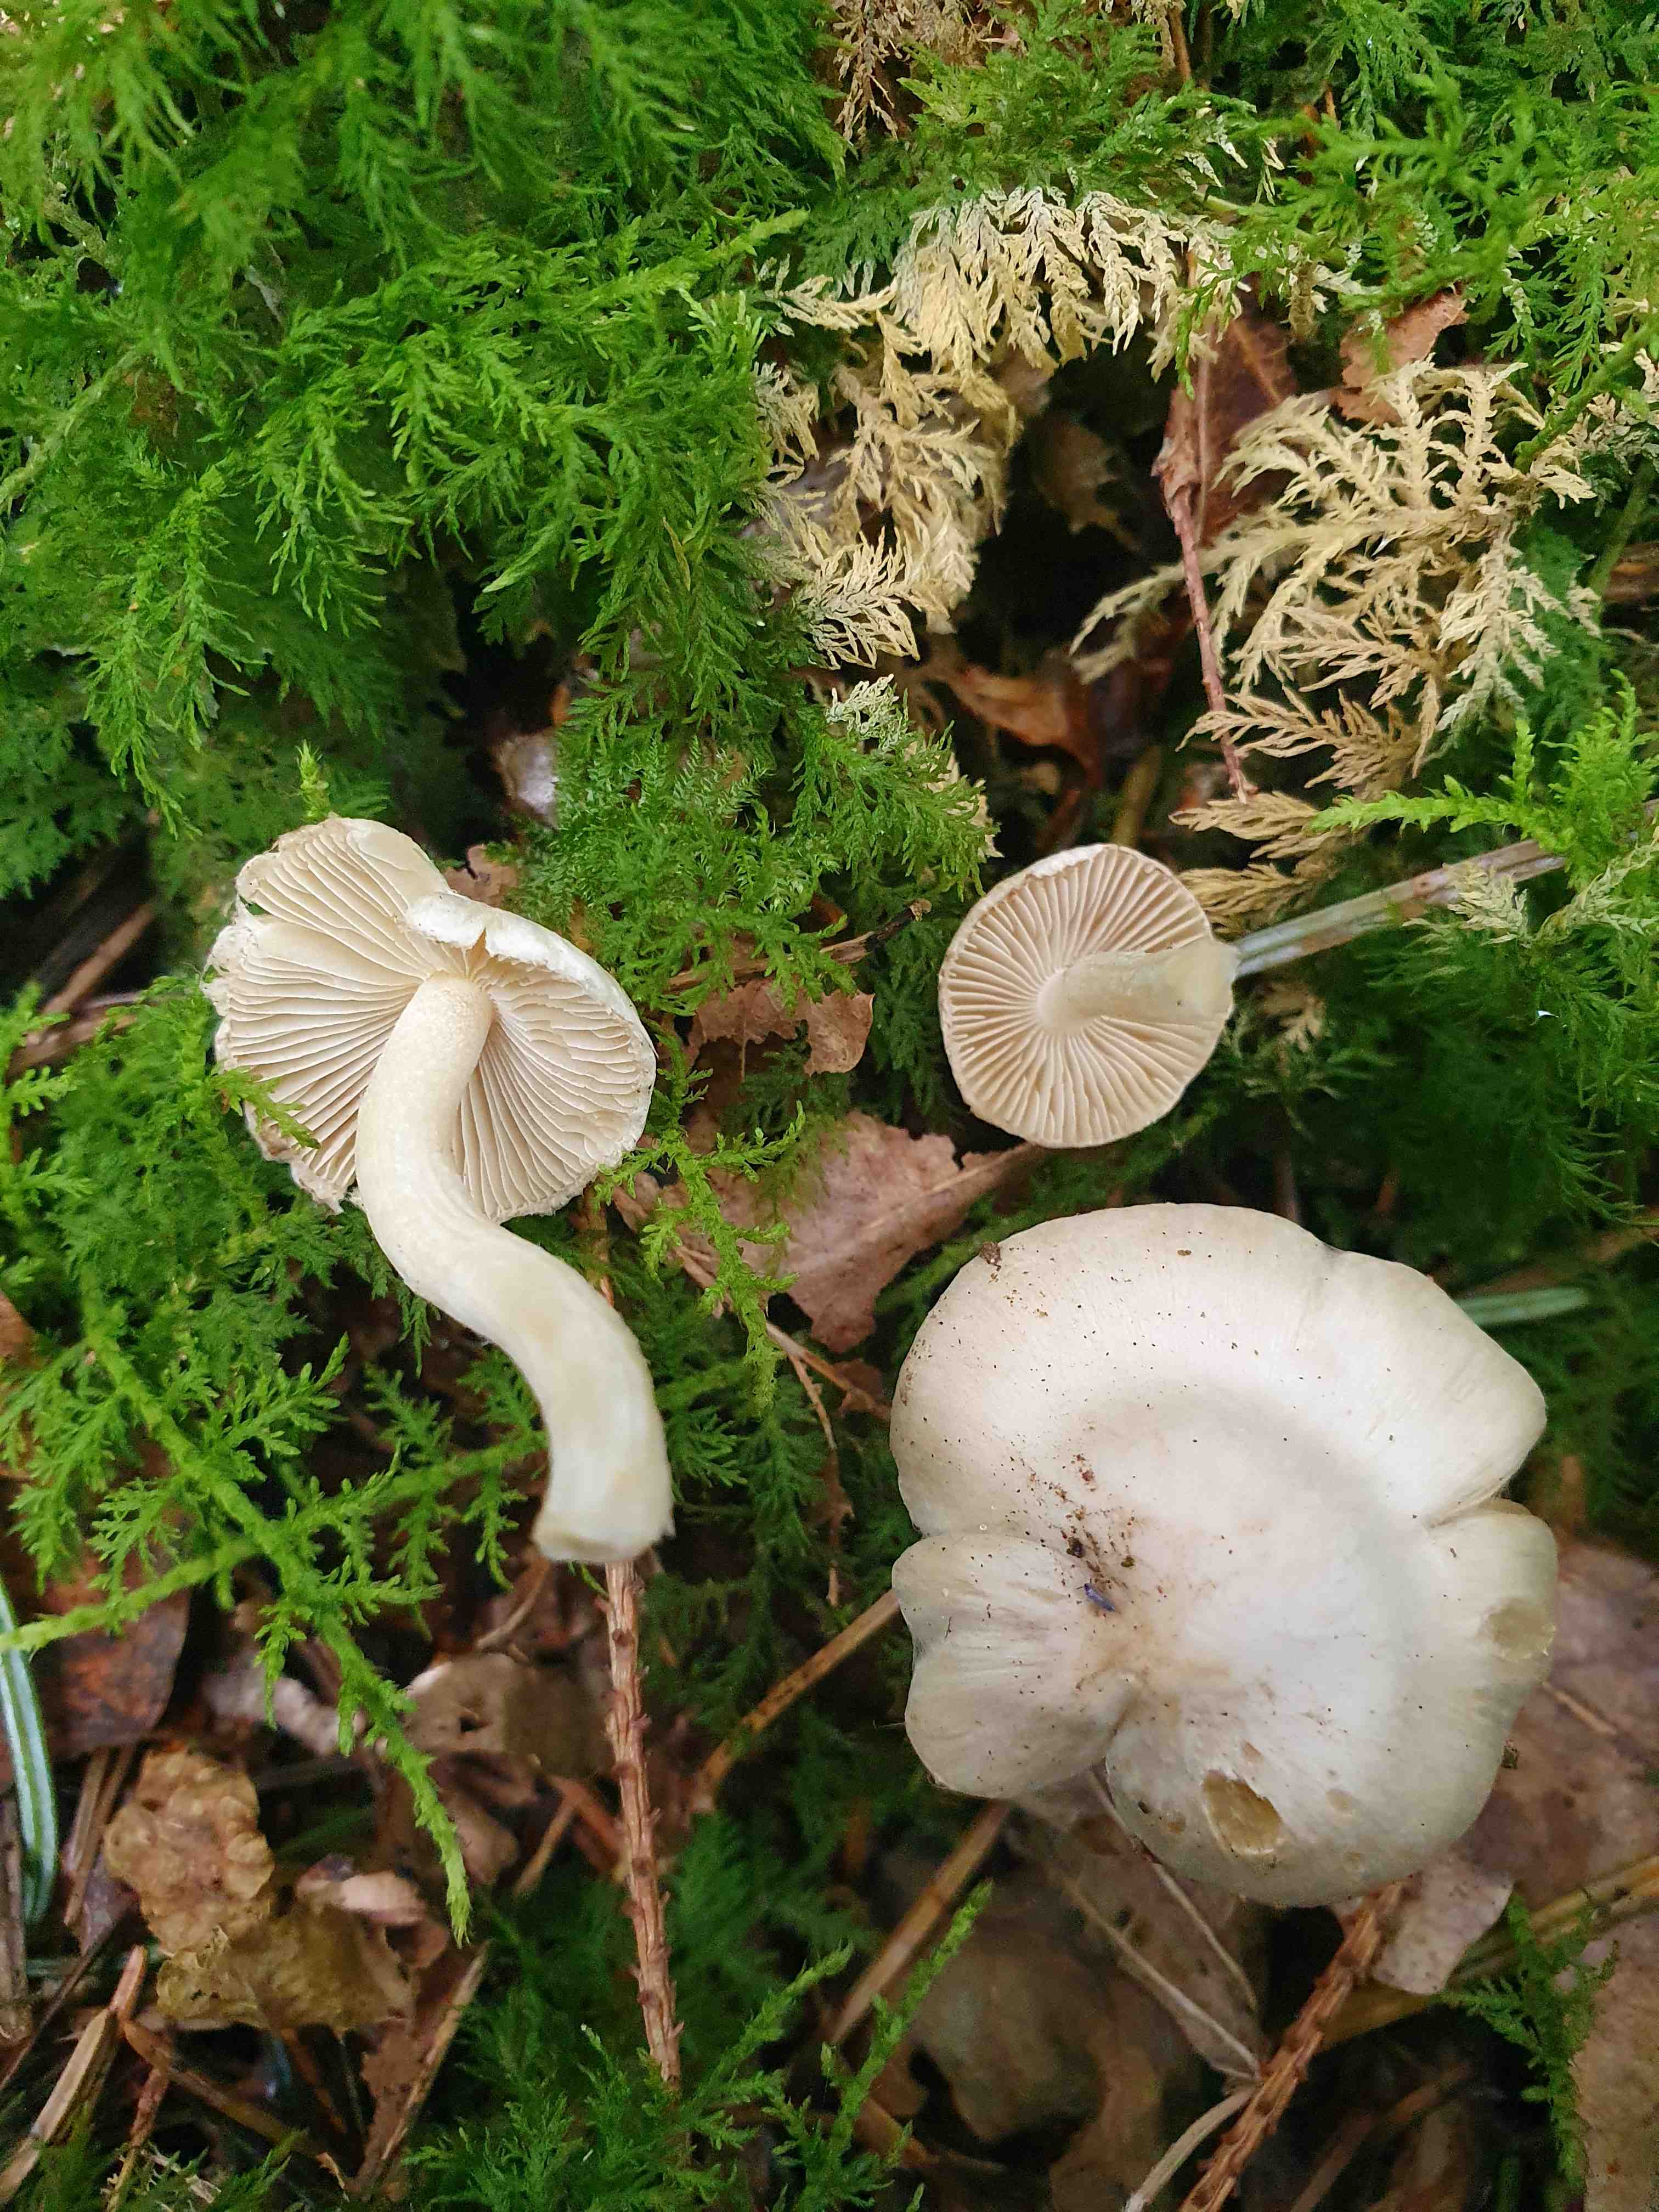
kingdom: Fungi
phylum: Basidiomycota
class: Agaricomycetes
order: Agaricales
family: Inocybaceae
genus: Inocybe
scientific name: Inocybe
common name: almindelig trævlhat
